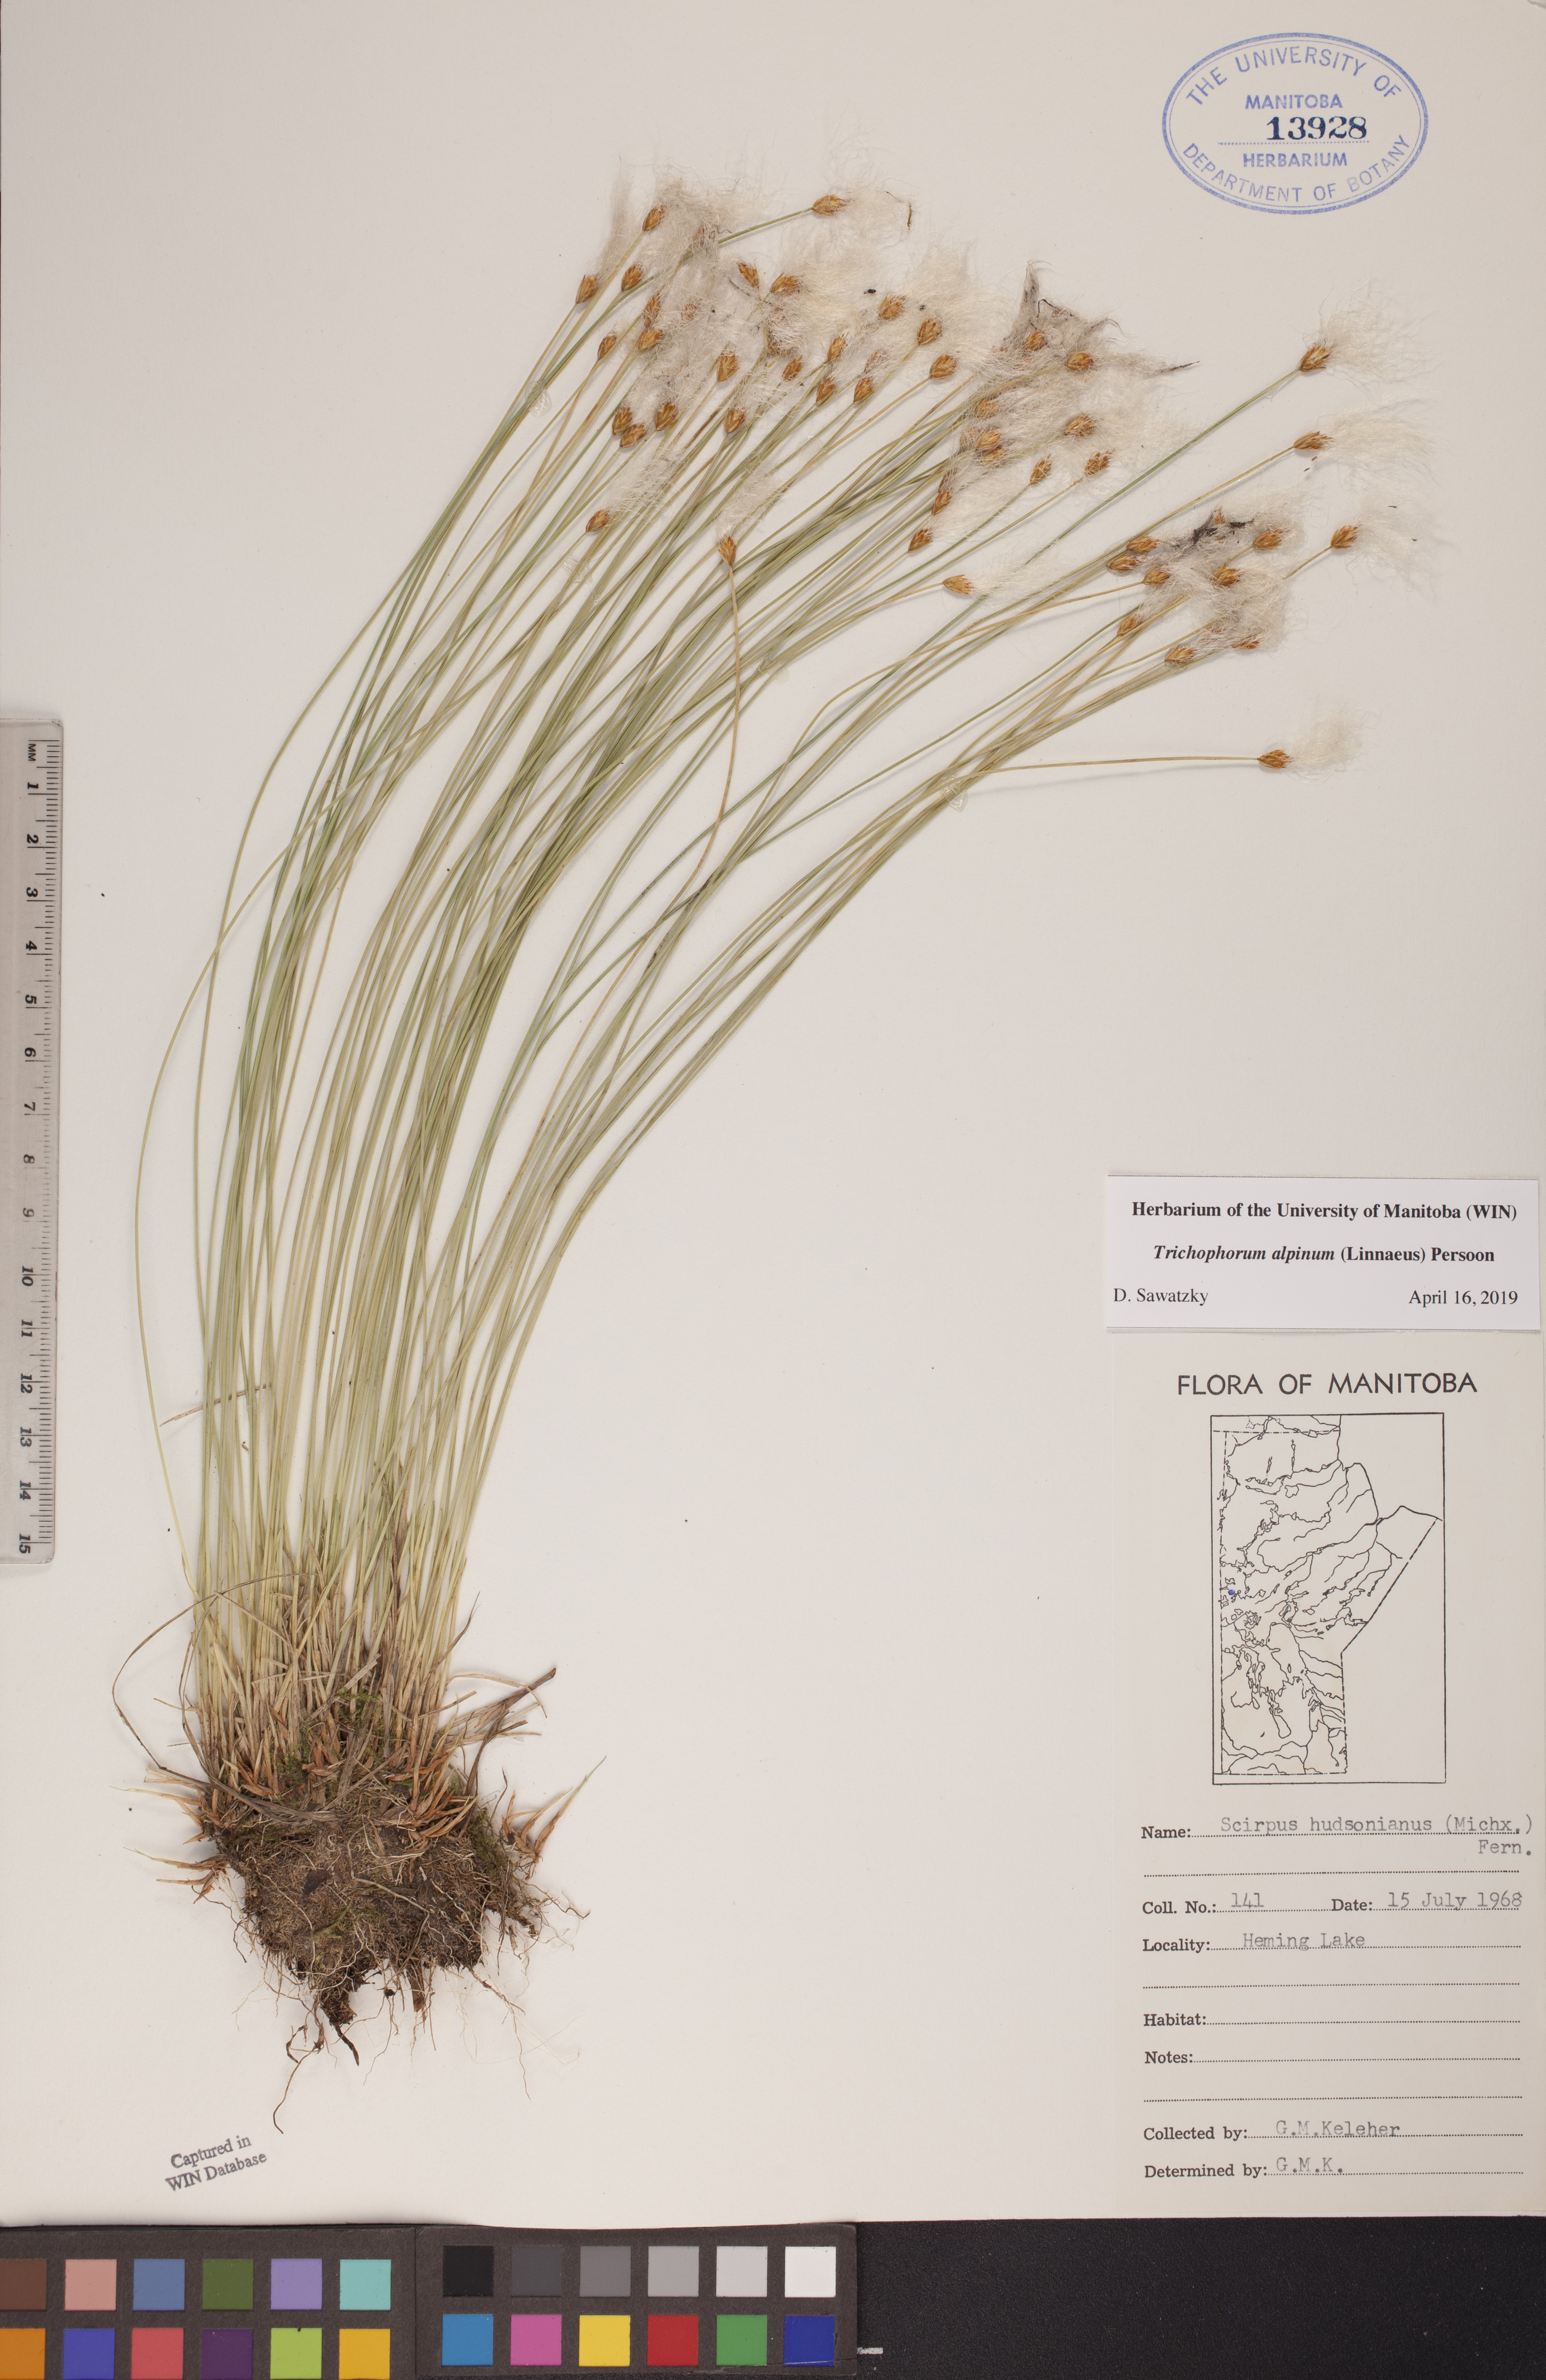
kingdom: Plantae
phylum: Tracheophyta
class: Liliopsida
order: Poales
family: Cyperaceae
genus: Trichophorum
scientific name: Trichophorum alpinum
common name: Alpine bulrush
